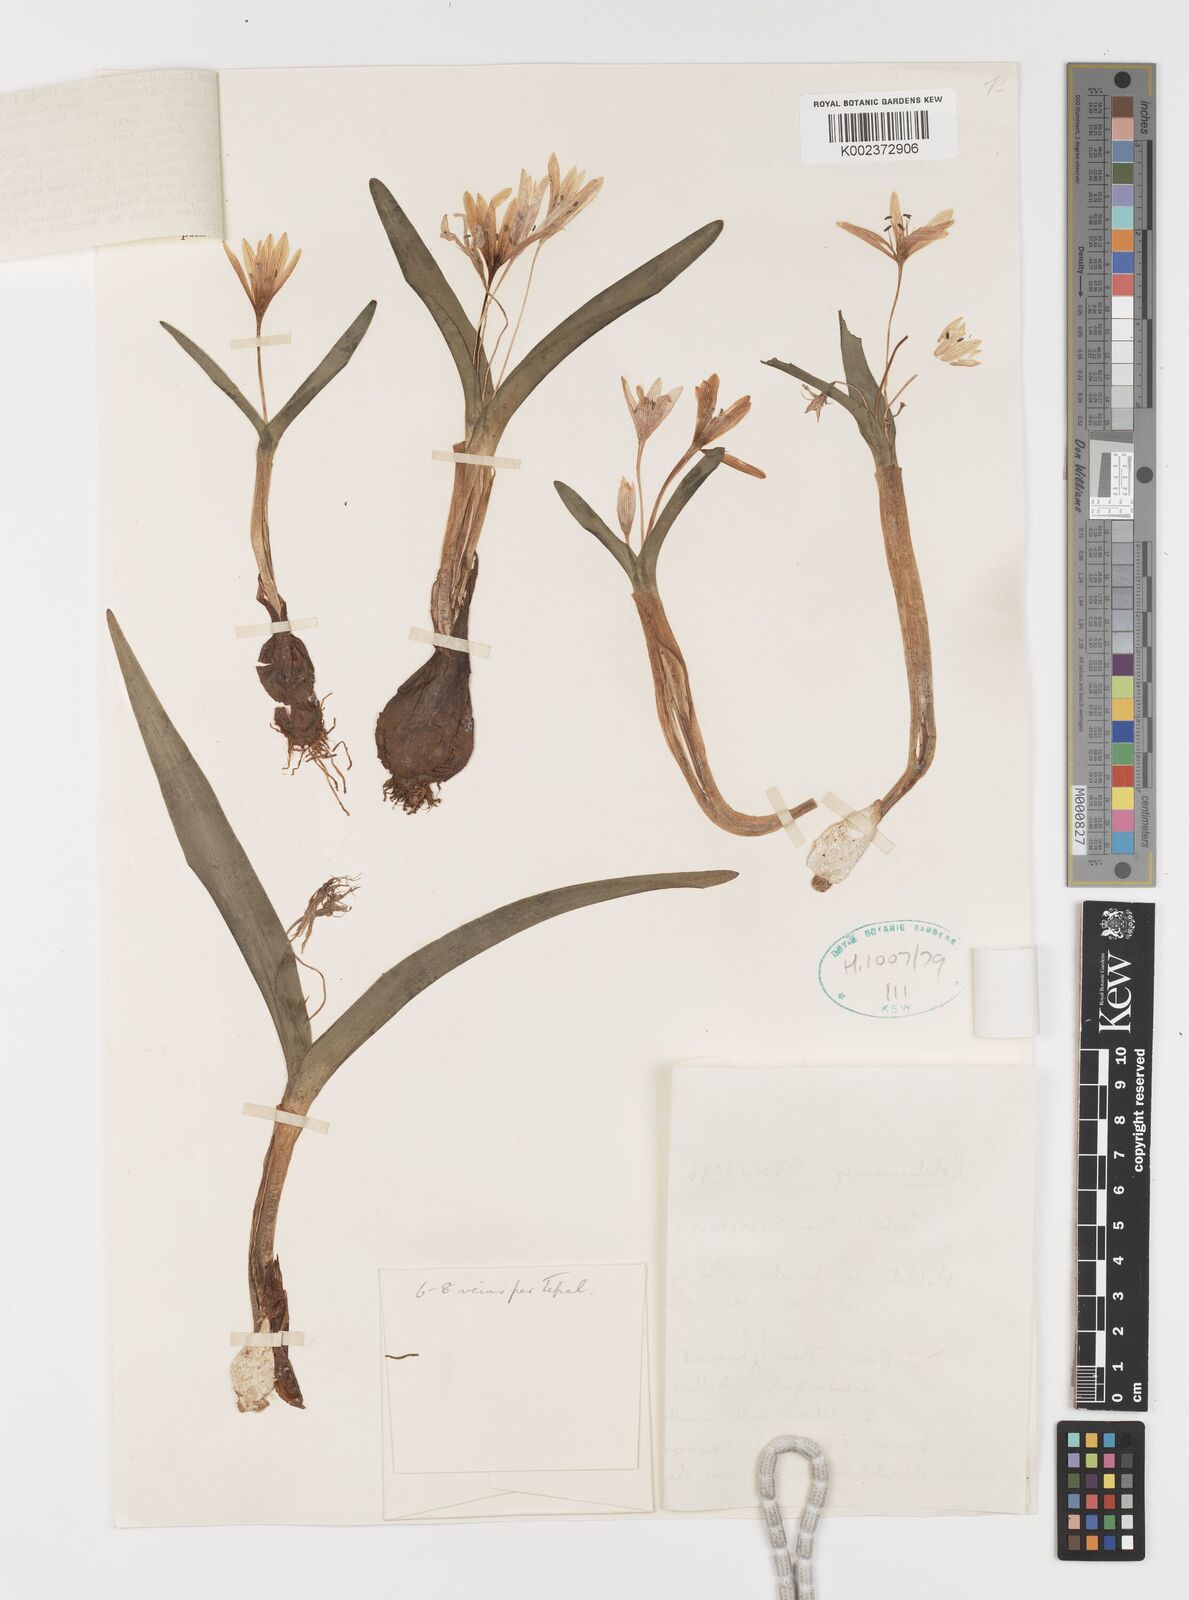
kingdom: Plantae
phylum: Tracheophyta
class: Liliopsida
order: Liliales
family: Colchicaceae
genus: Colchicum
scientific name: Colchicum cupanii
